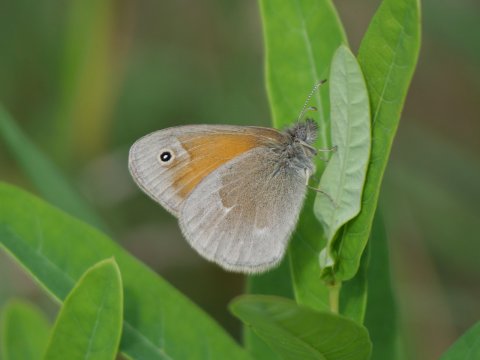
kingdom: Animalia
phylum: Arthropoda
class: Insecta
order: Lepidoptera
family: Nymphalidae
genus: Coenonympha
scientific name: Coenonympha tullia
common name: Large Heath
